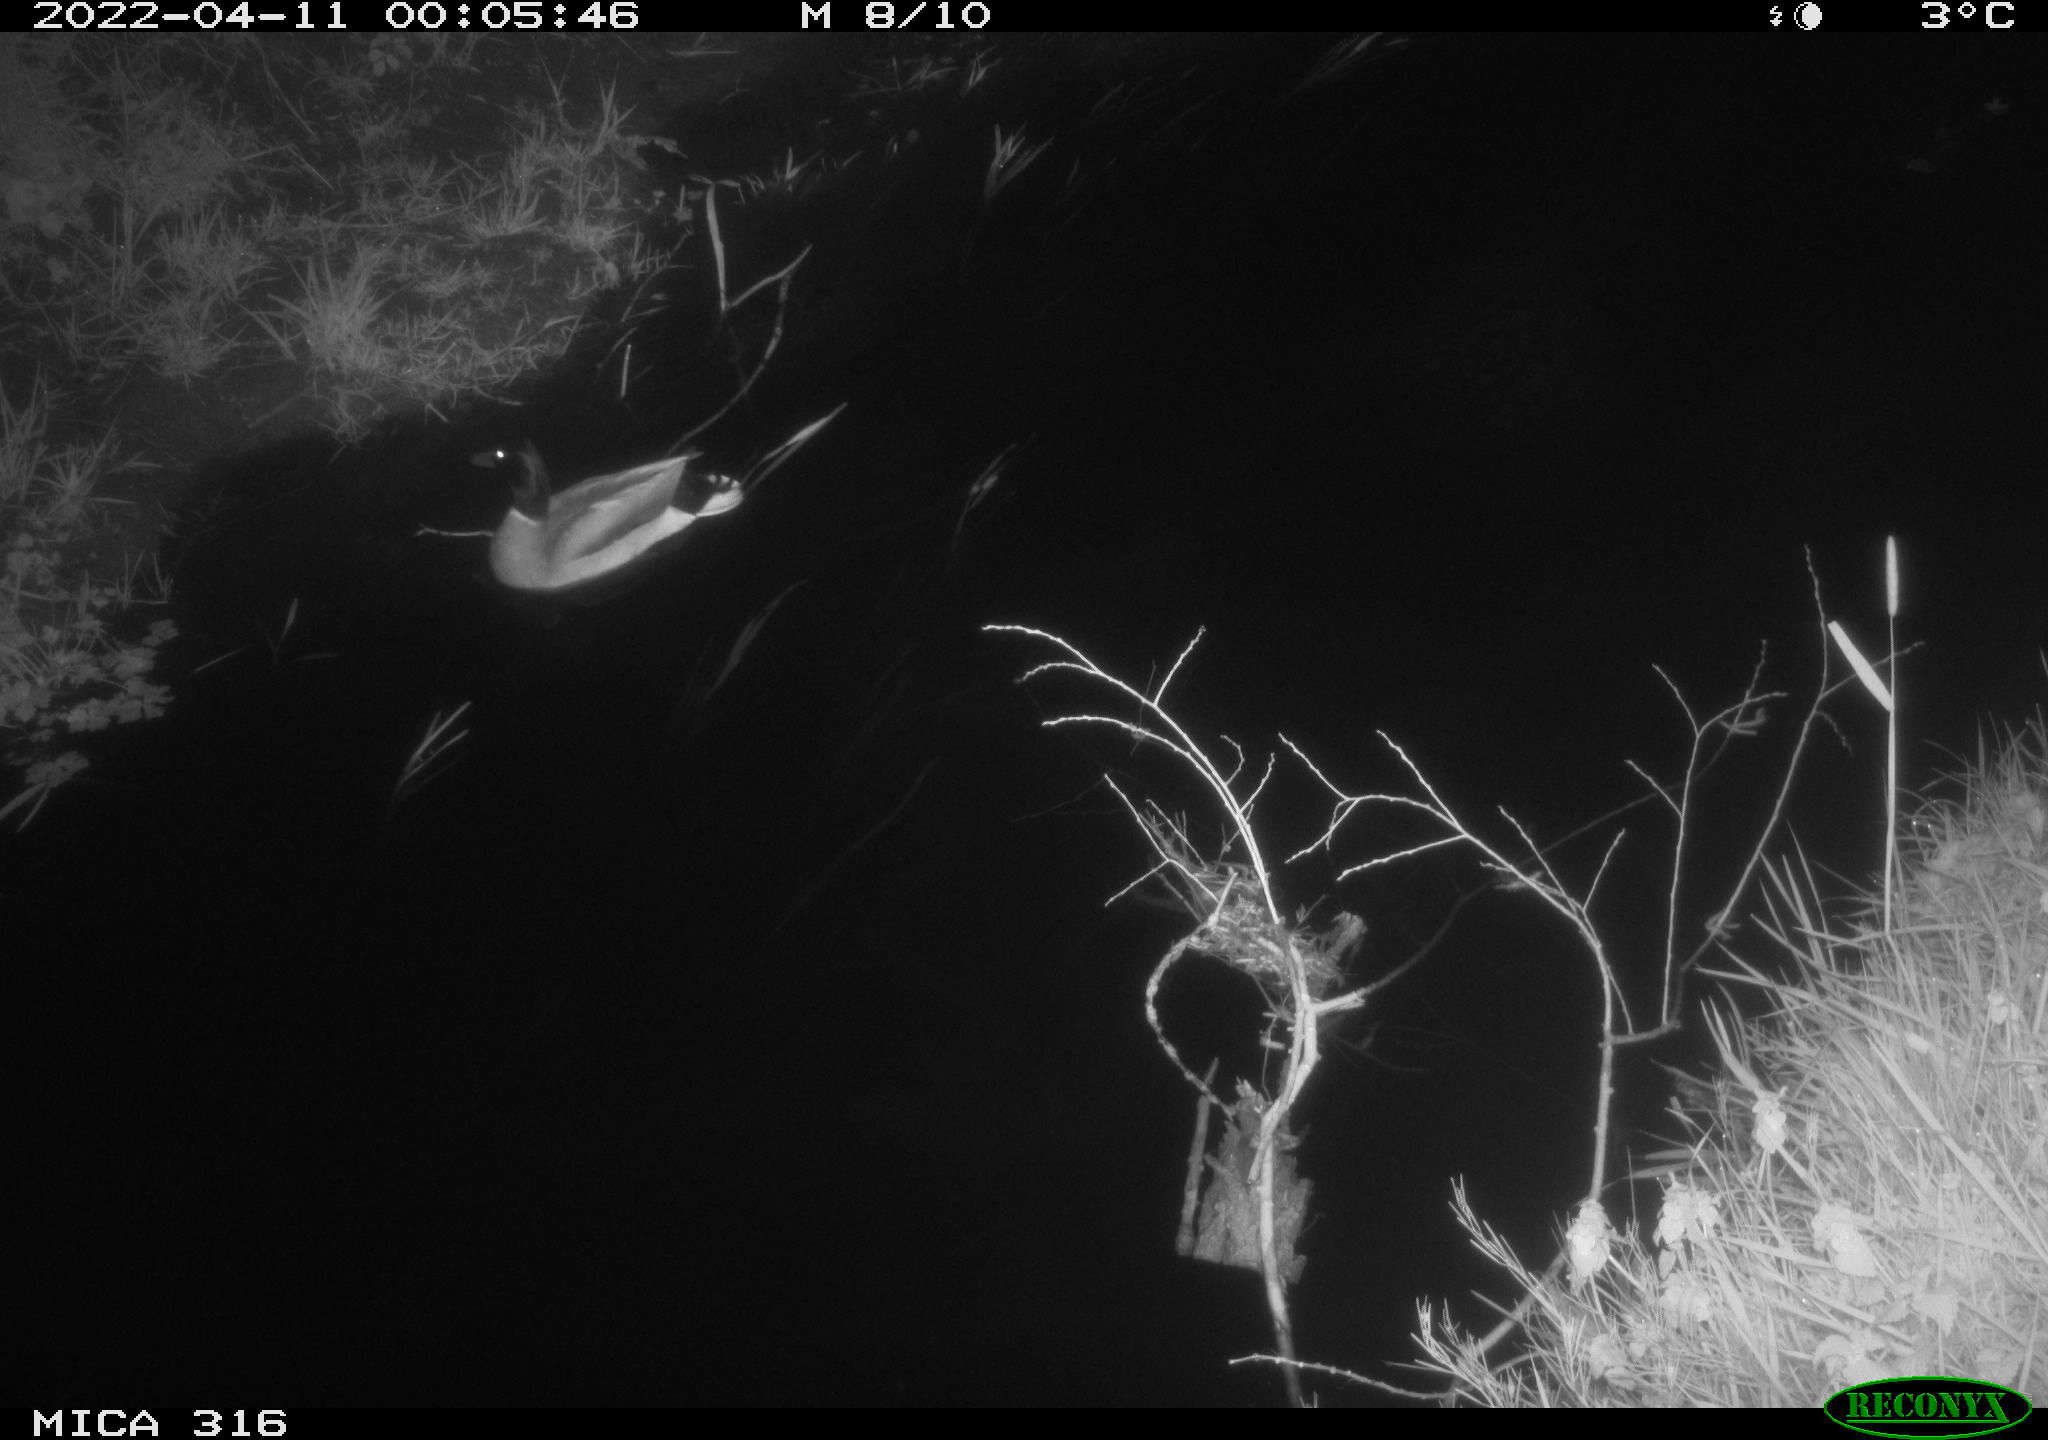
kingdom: Animalia
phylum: Chordata
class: Aves
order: Anseriformes
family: Anatidae
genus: Anas
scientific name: Anas platyrhynchos
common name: Mallard
